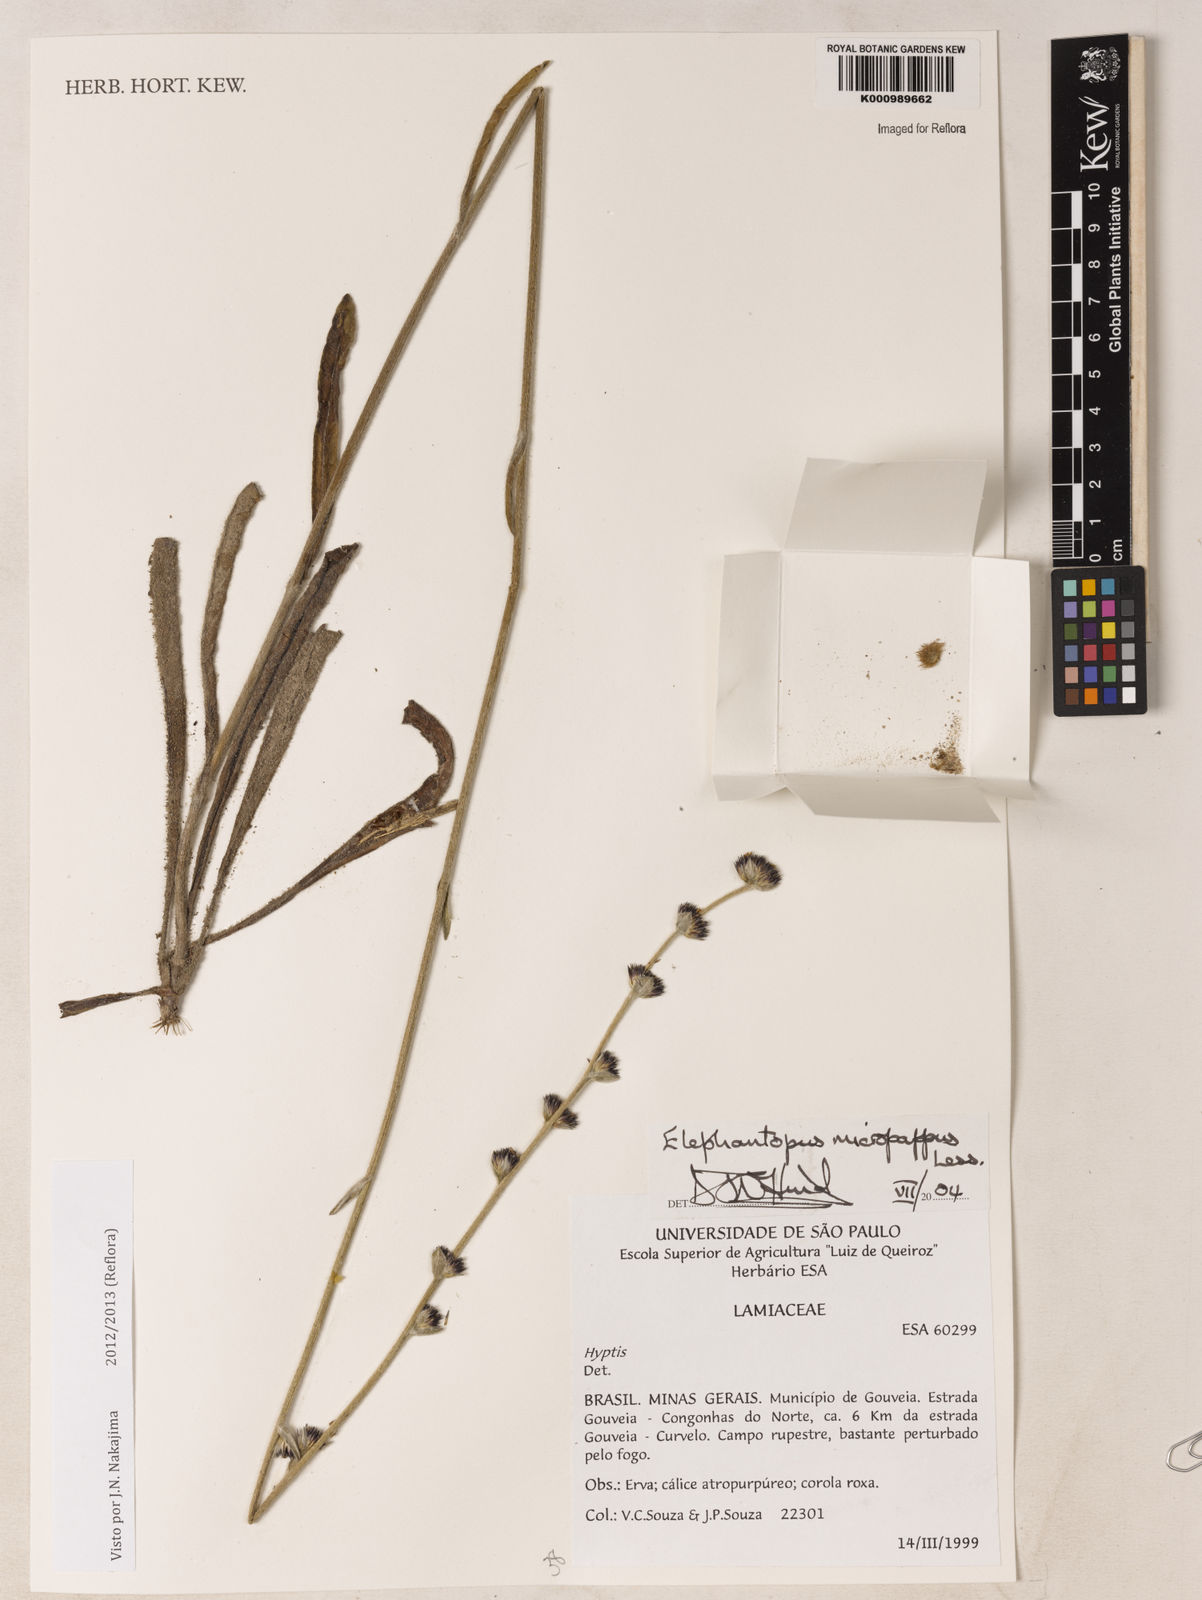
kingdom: Plantae
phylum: Tracheophyta
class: Magnoliopsida
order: Asterales
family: Asteraceae
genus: Elephantopus
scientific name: Elephantopus micropappus
